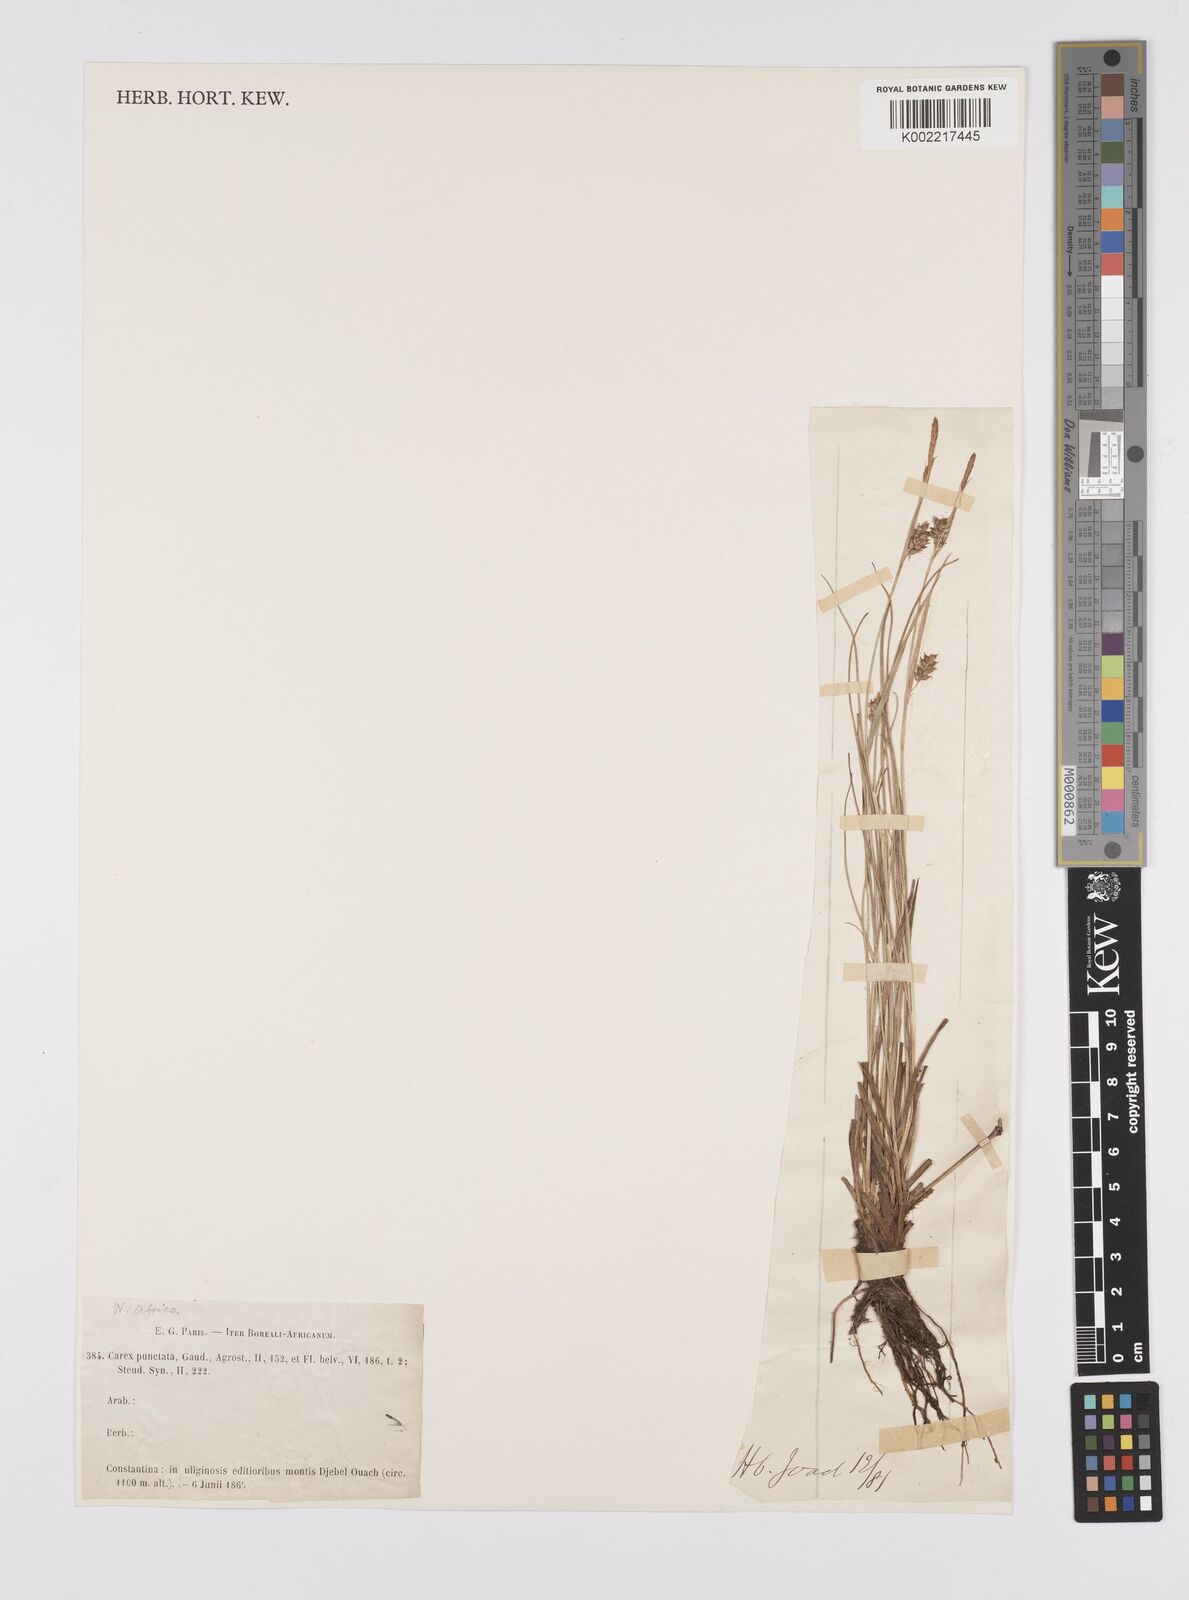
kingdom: Plantae
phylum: Tracheophyta
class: Liliopsida
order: Poales
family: Cyperaceae
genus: Carex
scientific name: Carex punctata
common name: Dotted sedge
